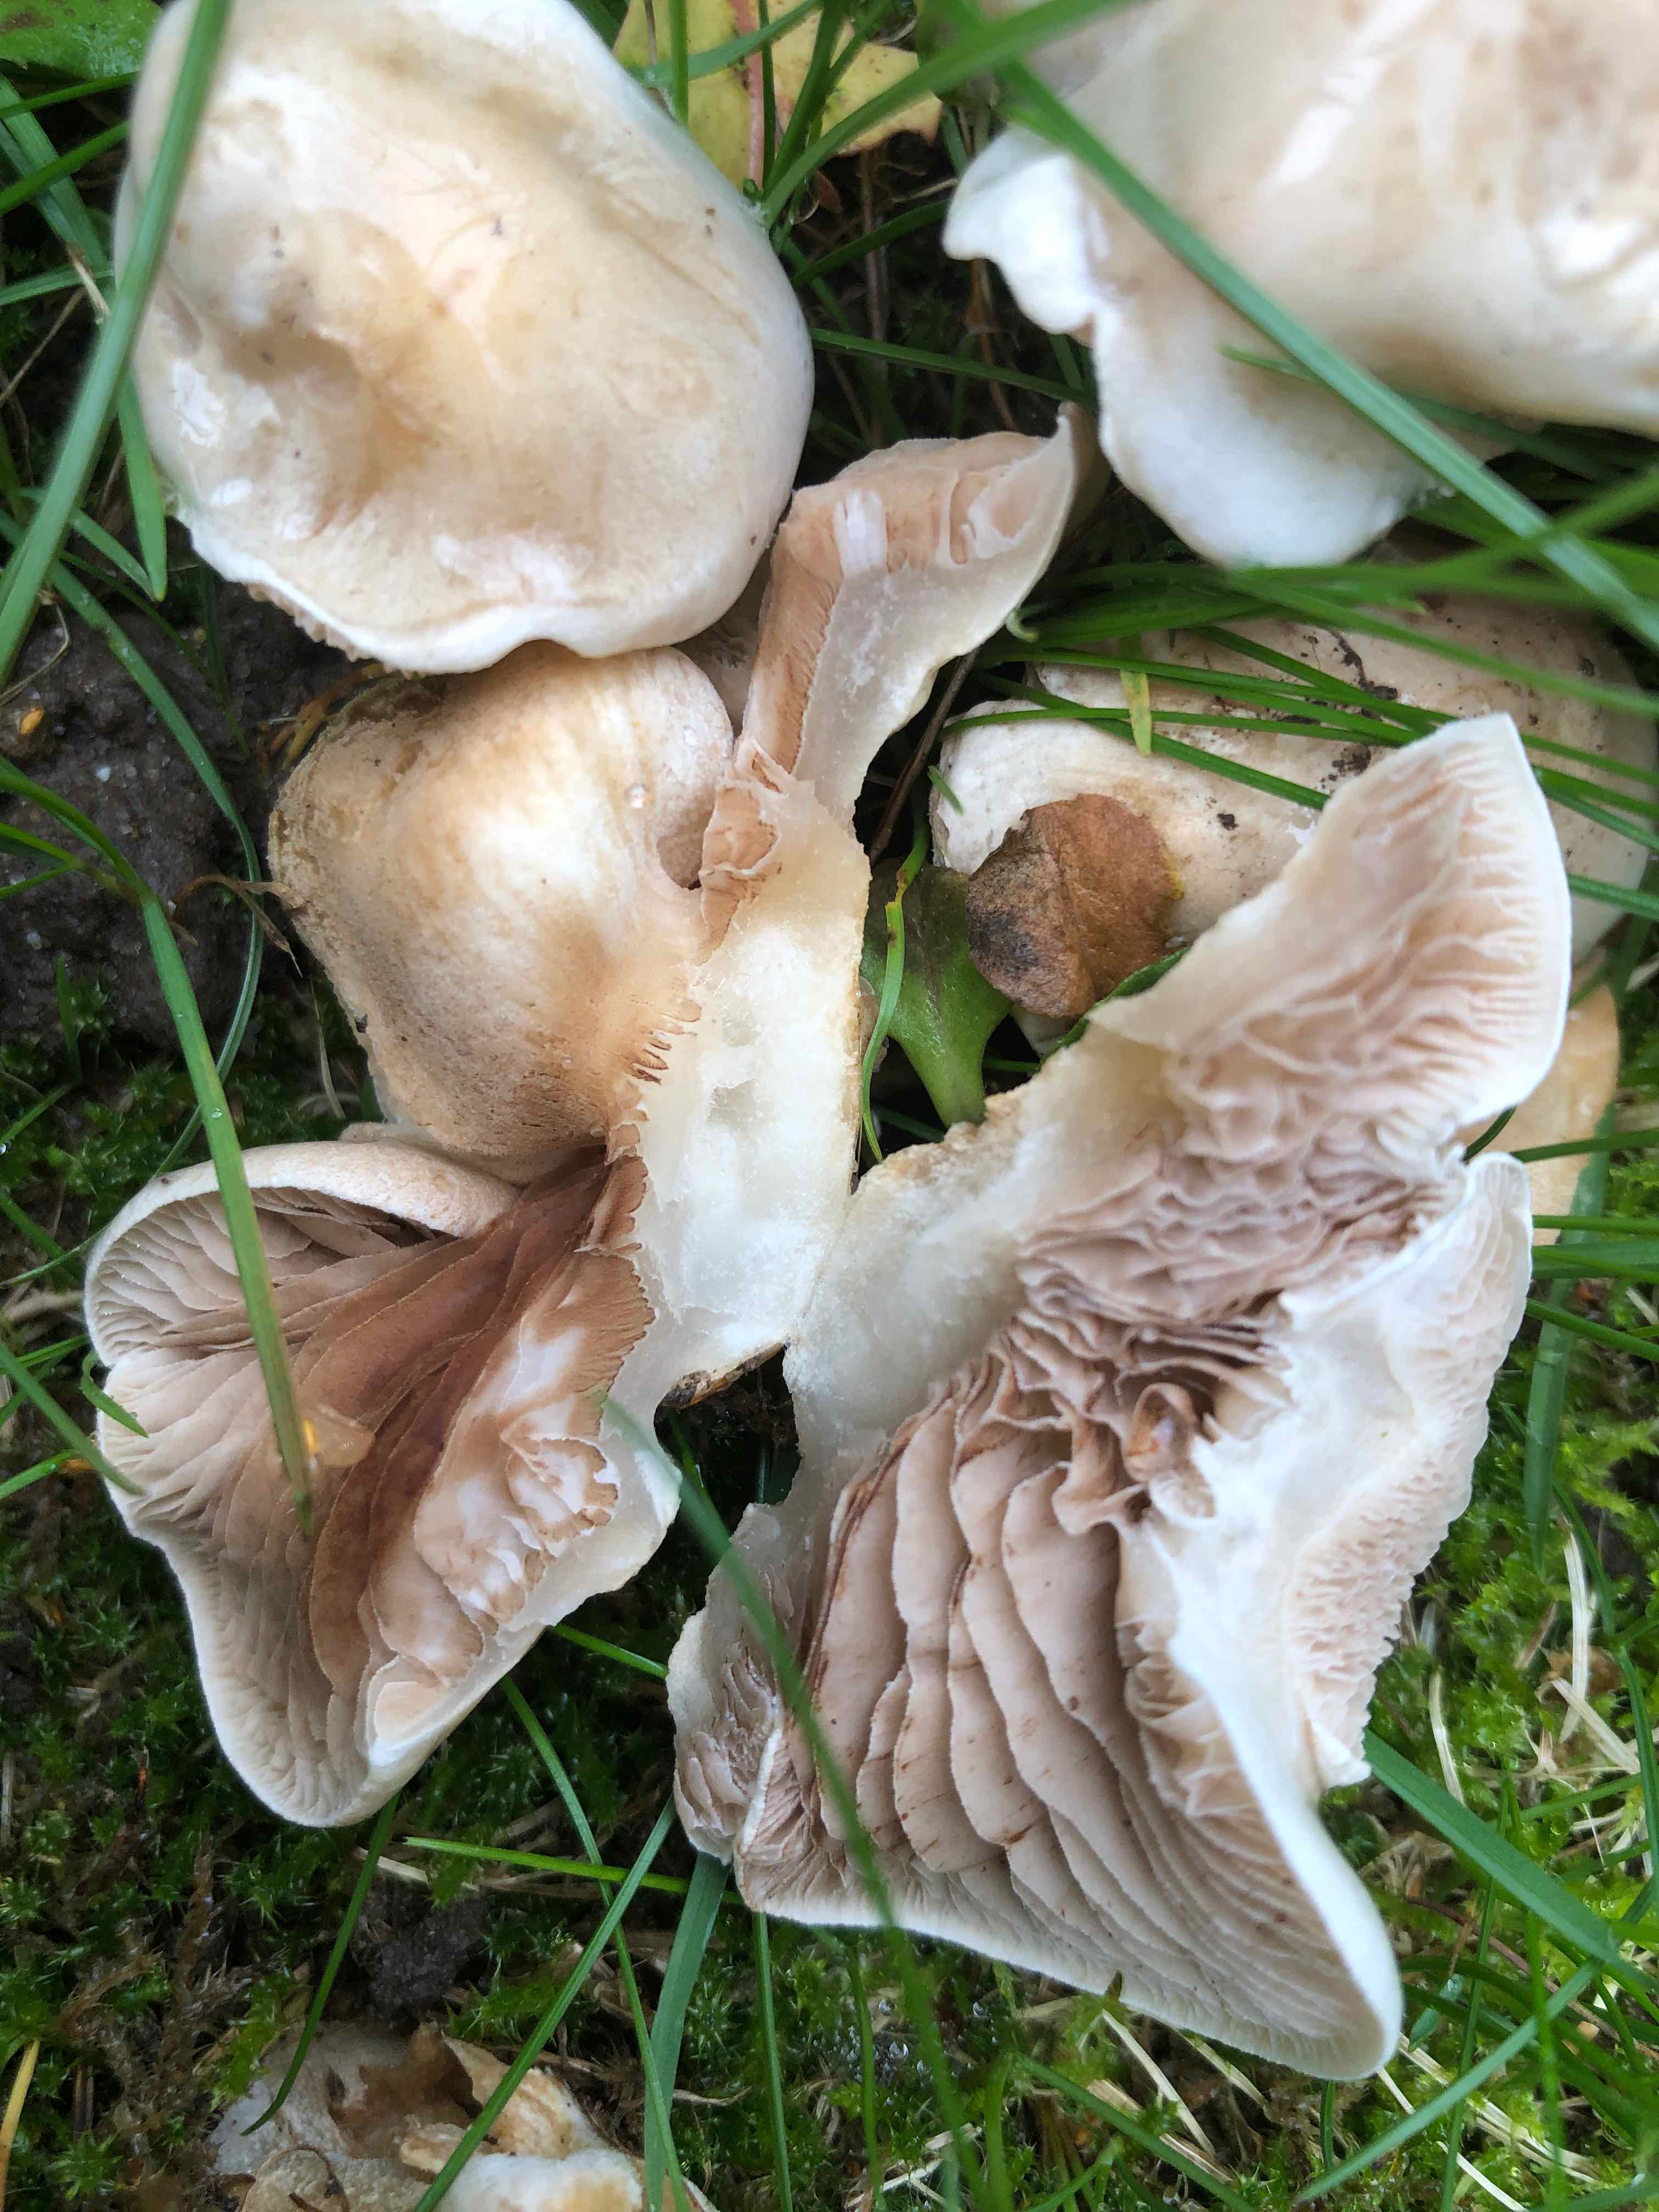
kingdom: Fungi
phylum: Basidiomycota
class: Agaricomycetes
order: Agaricales
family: Hymenogastraceae
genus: Hebeloma
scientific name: Hebeloma
